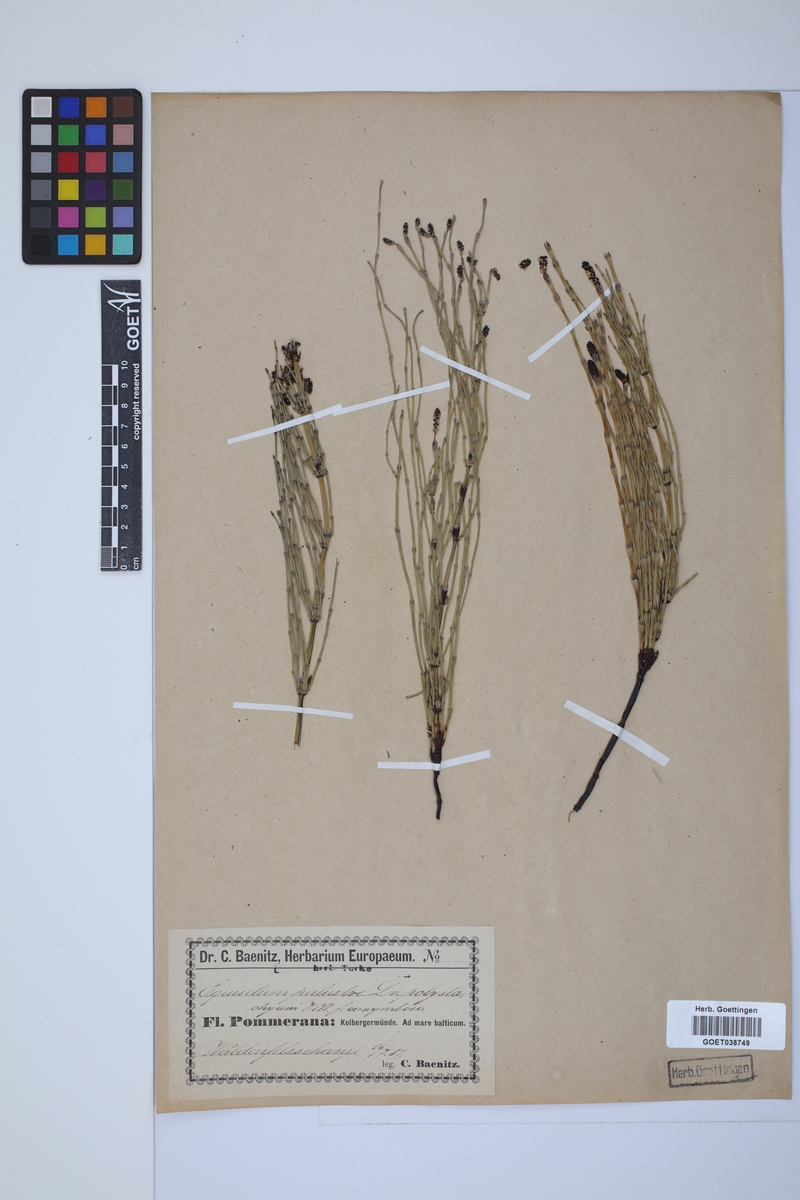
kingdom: Plantae
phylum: Tracheophyta
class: Polypodiopsida
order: Equisetales
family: Equisetaceae
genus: Equisetum
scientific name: Equisetum palustre
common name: Marsh horsetail
